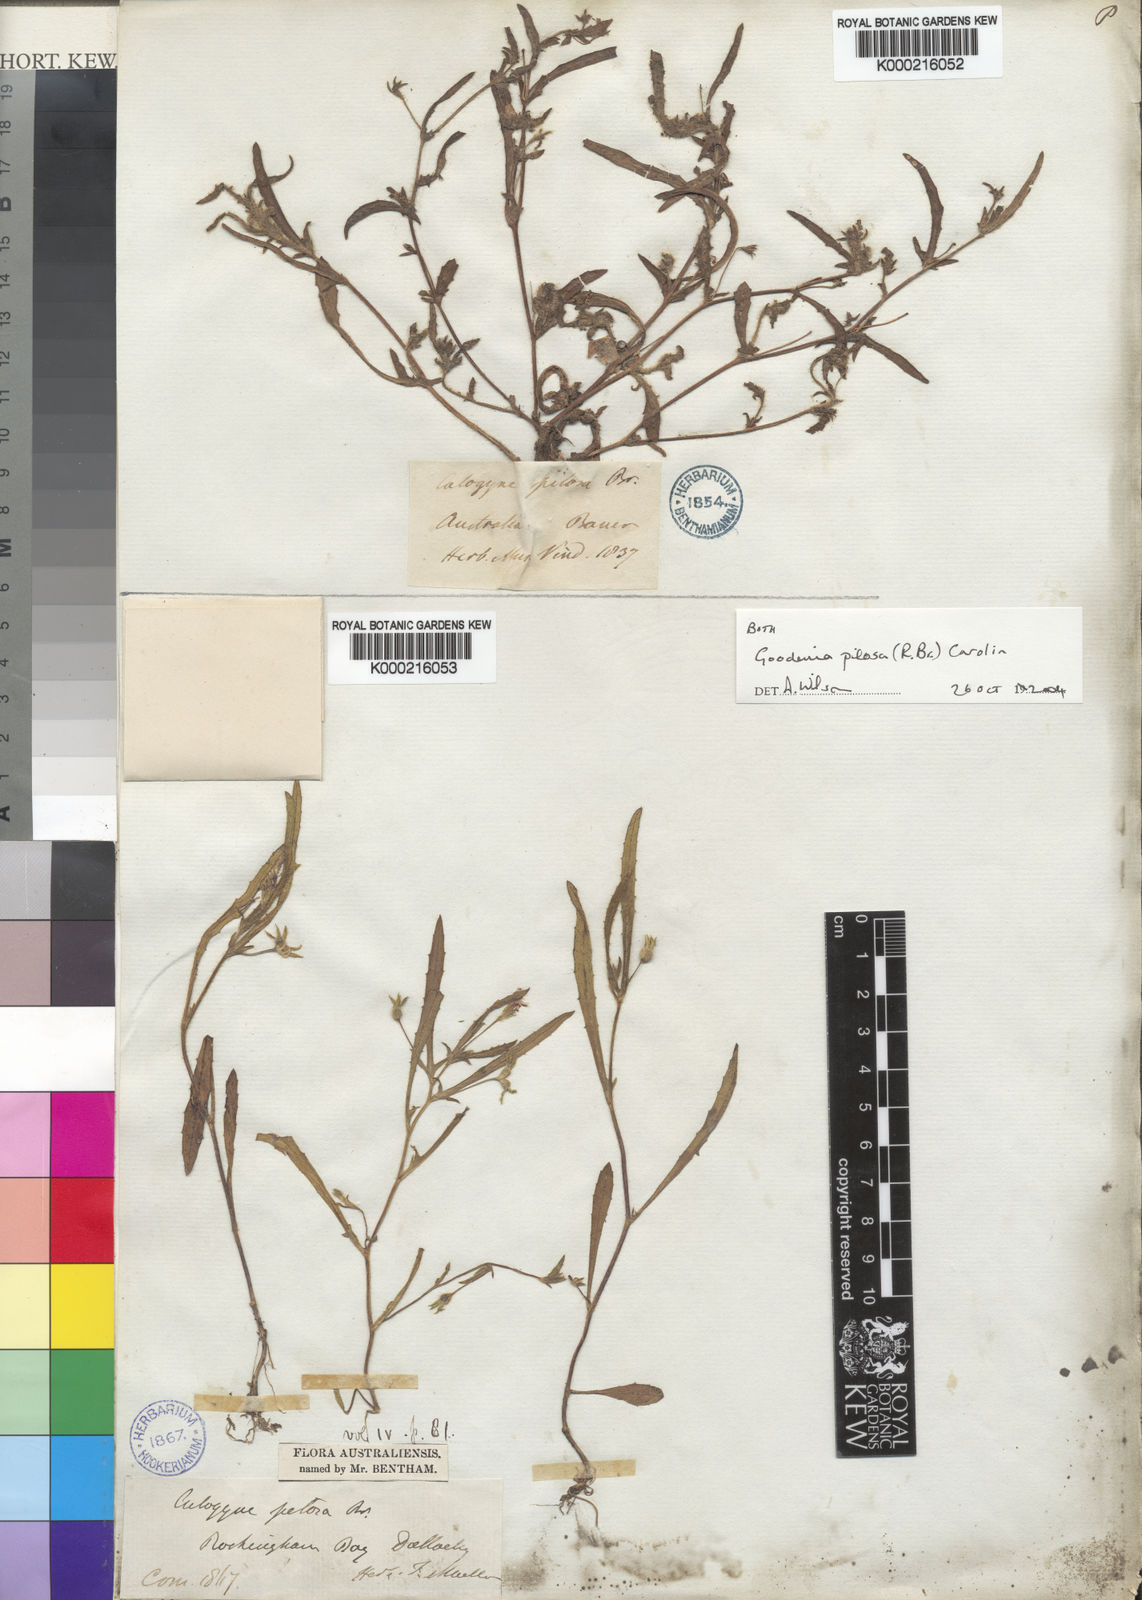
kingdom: Plantae
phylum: Tracheophyta
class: Magnoliopsida
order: Asterales
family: Goodeniaceae
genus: Goodenia
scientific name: Goodenia pilosa
